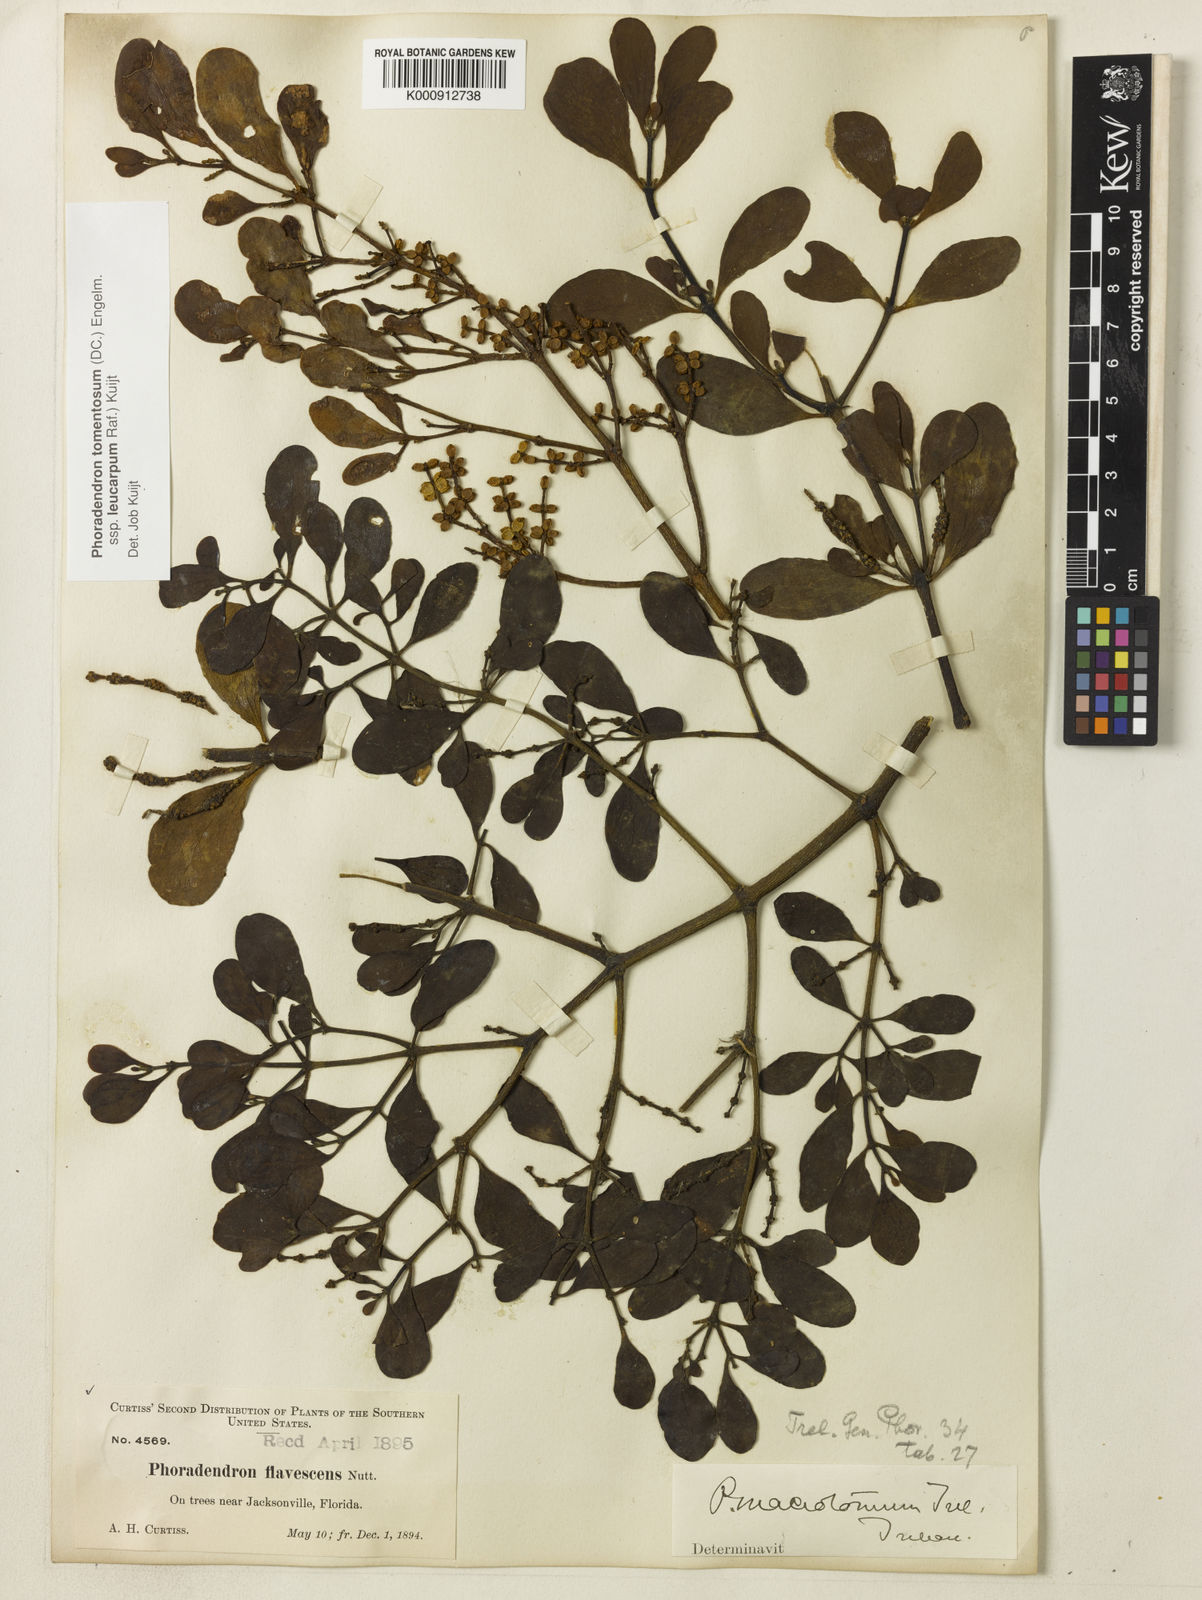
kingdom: Plantae
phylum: Tracheophyta
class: Magnoliopsida
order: Santalales
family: Viscaceae
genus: Phoradendron
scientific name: Phoradendron
